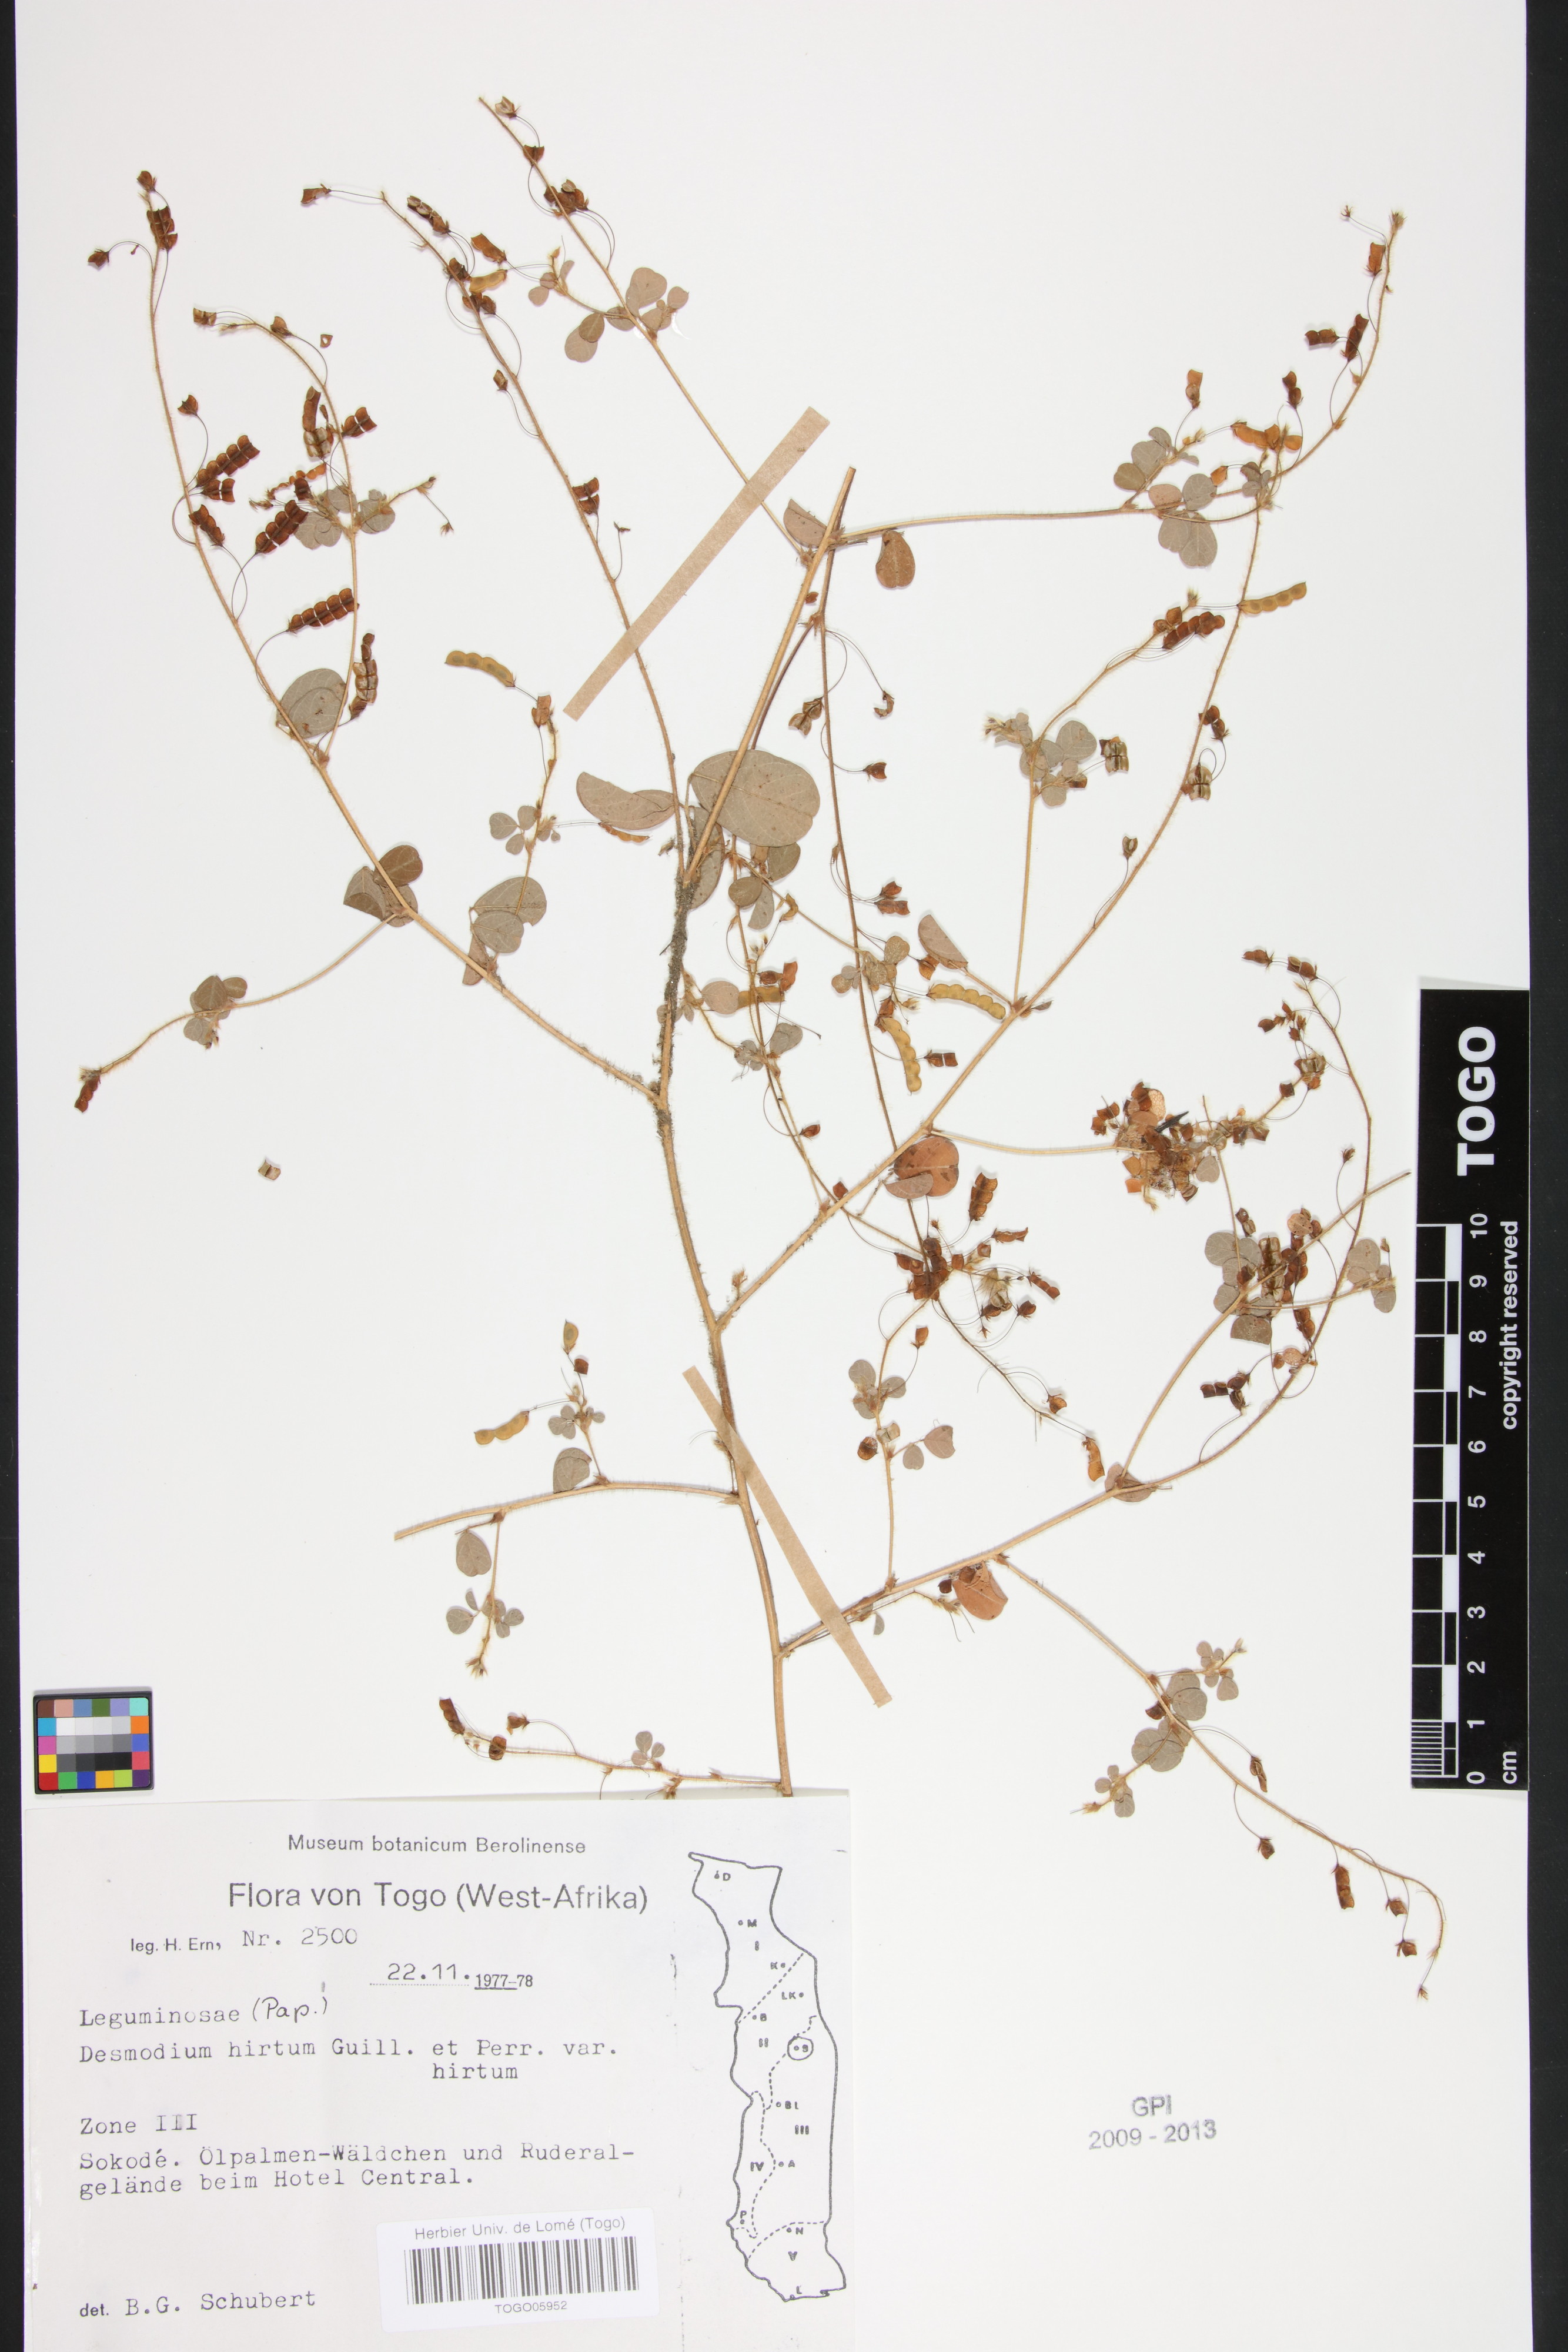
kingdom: Plantae
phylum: Tracheophyta
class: Magnoliopsida
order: Fabales
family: Fabaceae
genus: Grona
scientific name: Grona hirta
